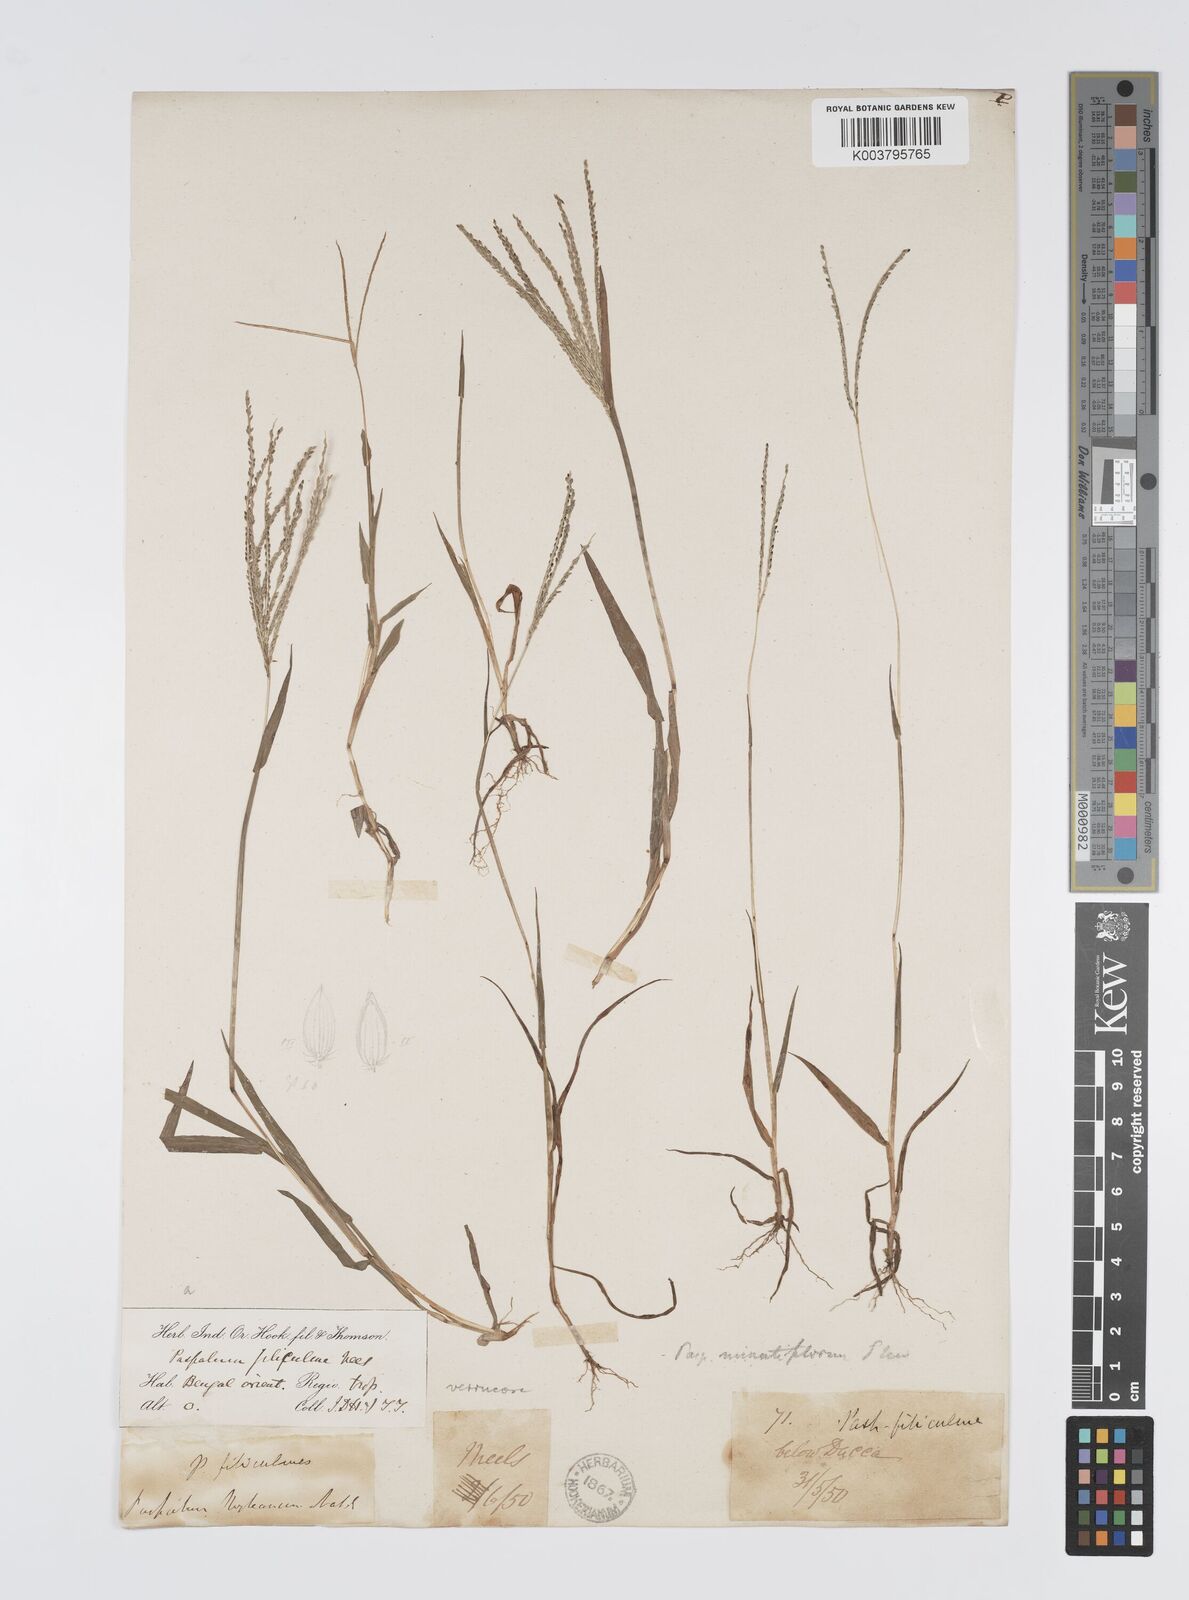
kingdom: Plantae
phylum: Tracheophyta
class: Liliopsida
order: Poales
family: Poaceae
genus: Digitaria
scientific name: Digitaria violascens
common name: Violet crabgrass
